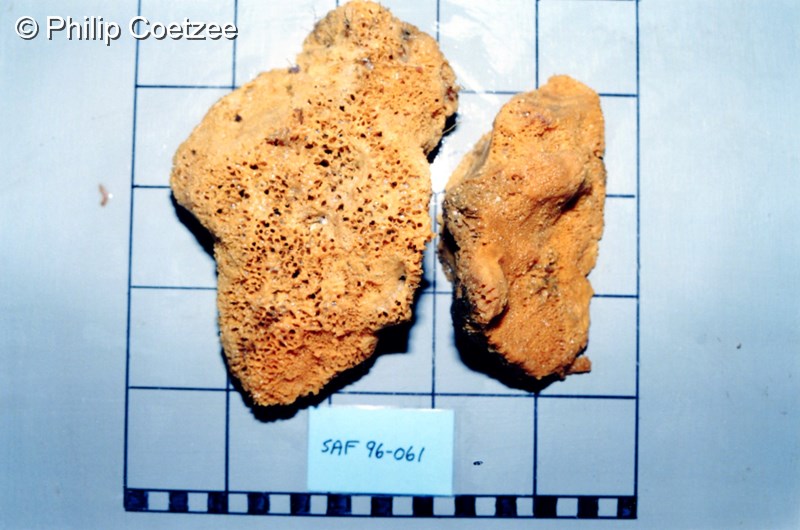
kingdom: Animalia
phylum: Porifera
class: Demospongiae
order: Suberitida
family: Halichondriidae
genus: Hymeniacidon
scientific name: Hymeniacidon
